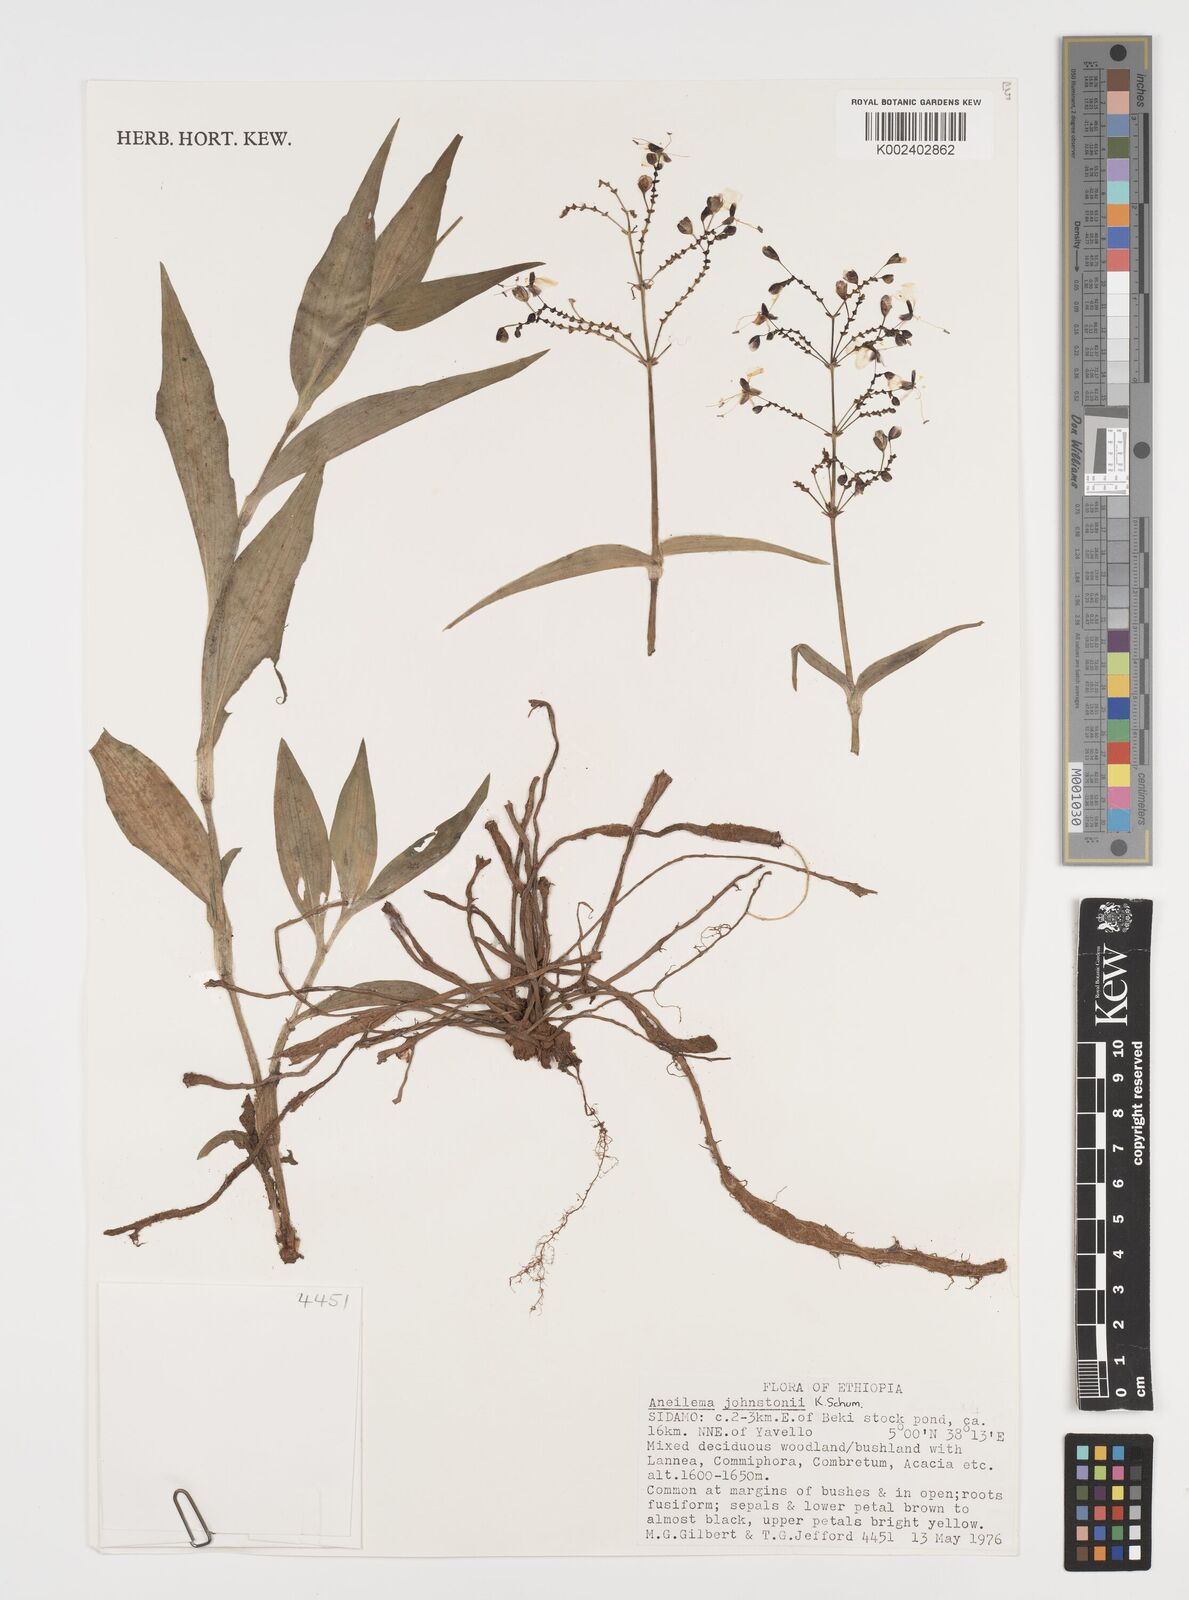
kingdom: Plantae
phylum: Tracheophyta
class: Liliopsida
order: Commelinales
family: Commelinaceae
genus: Aneilema
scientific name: Aneilema johnstonii
